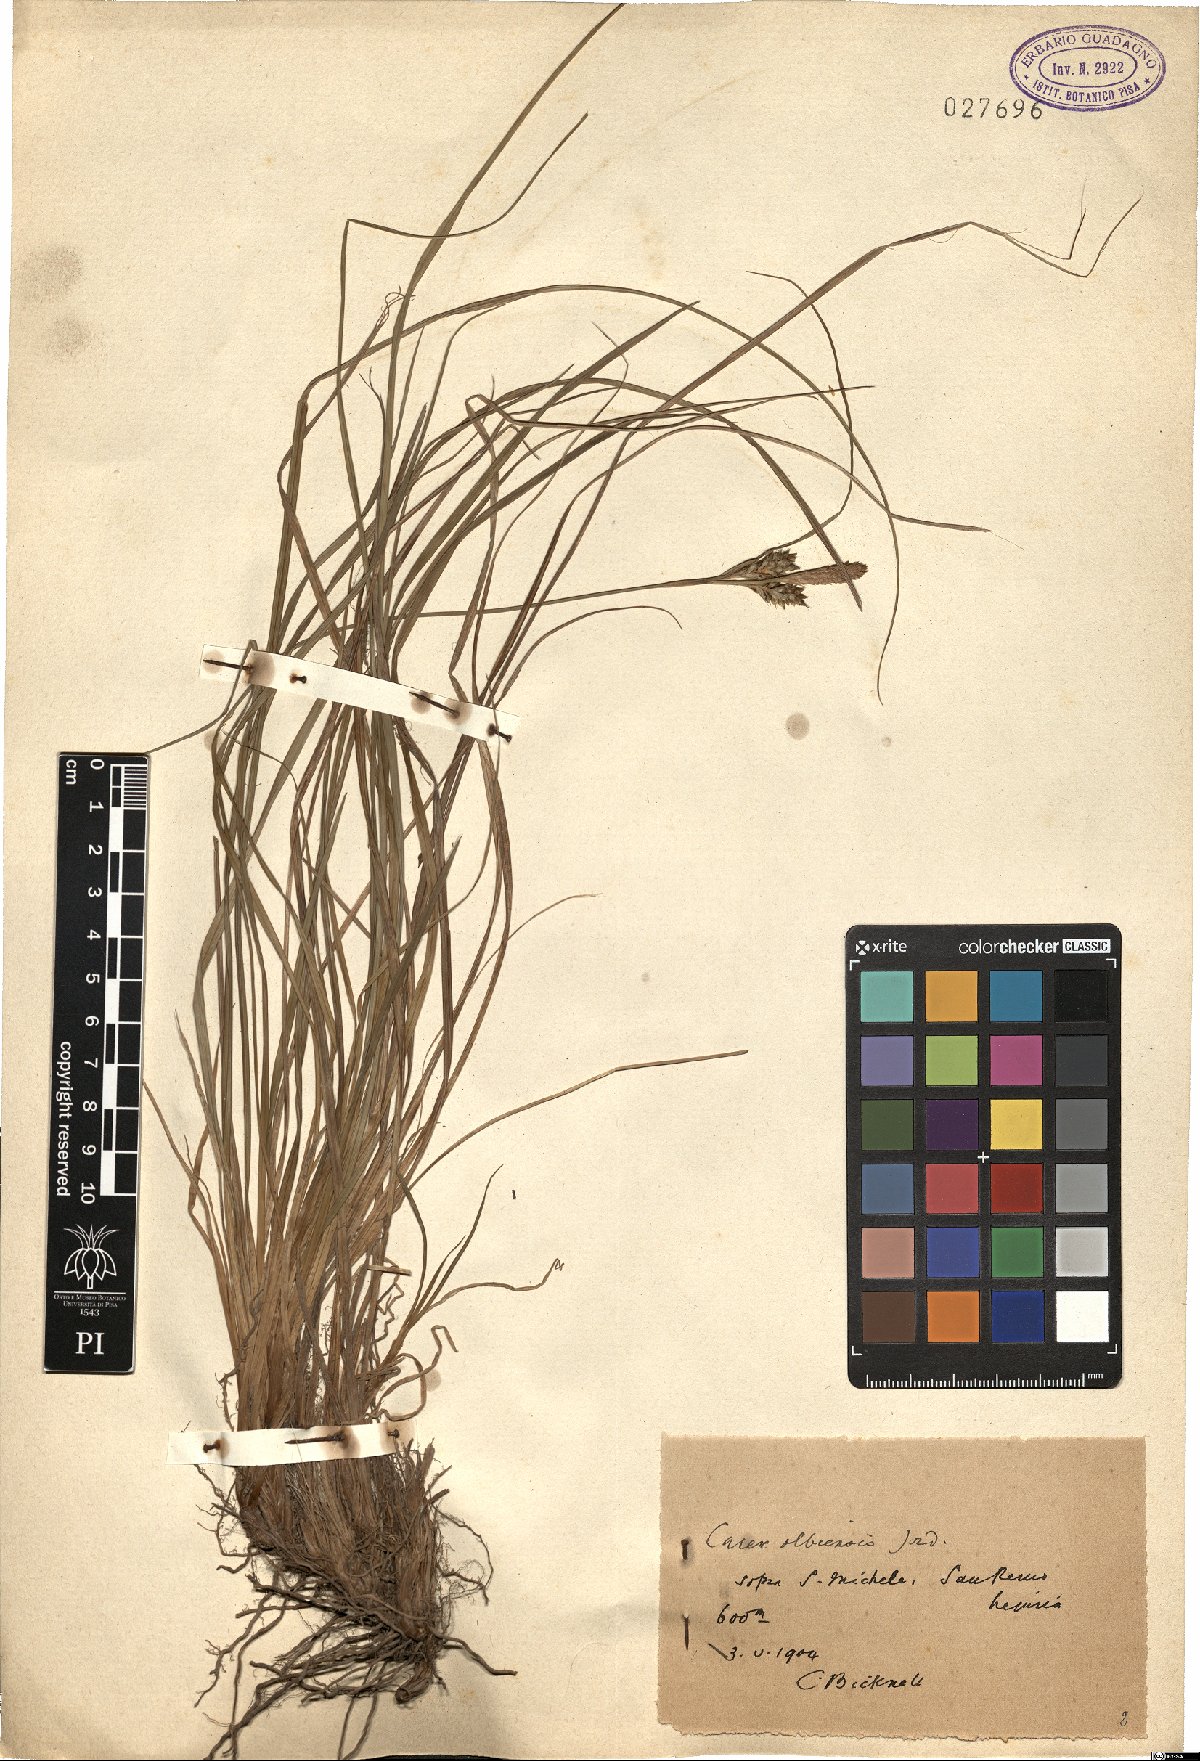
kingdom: Plantae
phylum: Tracheophyta
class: Liliopsida
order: Poales
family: Cyperaceae
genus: Carex
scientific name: Carex olbiensis
